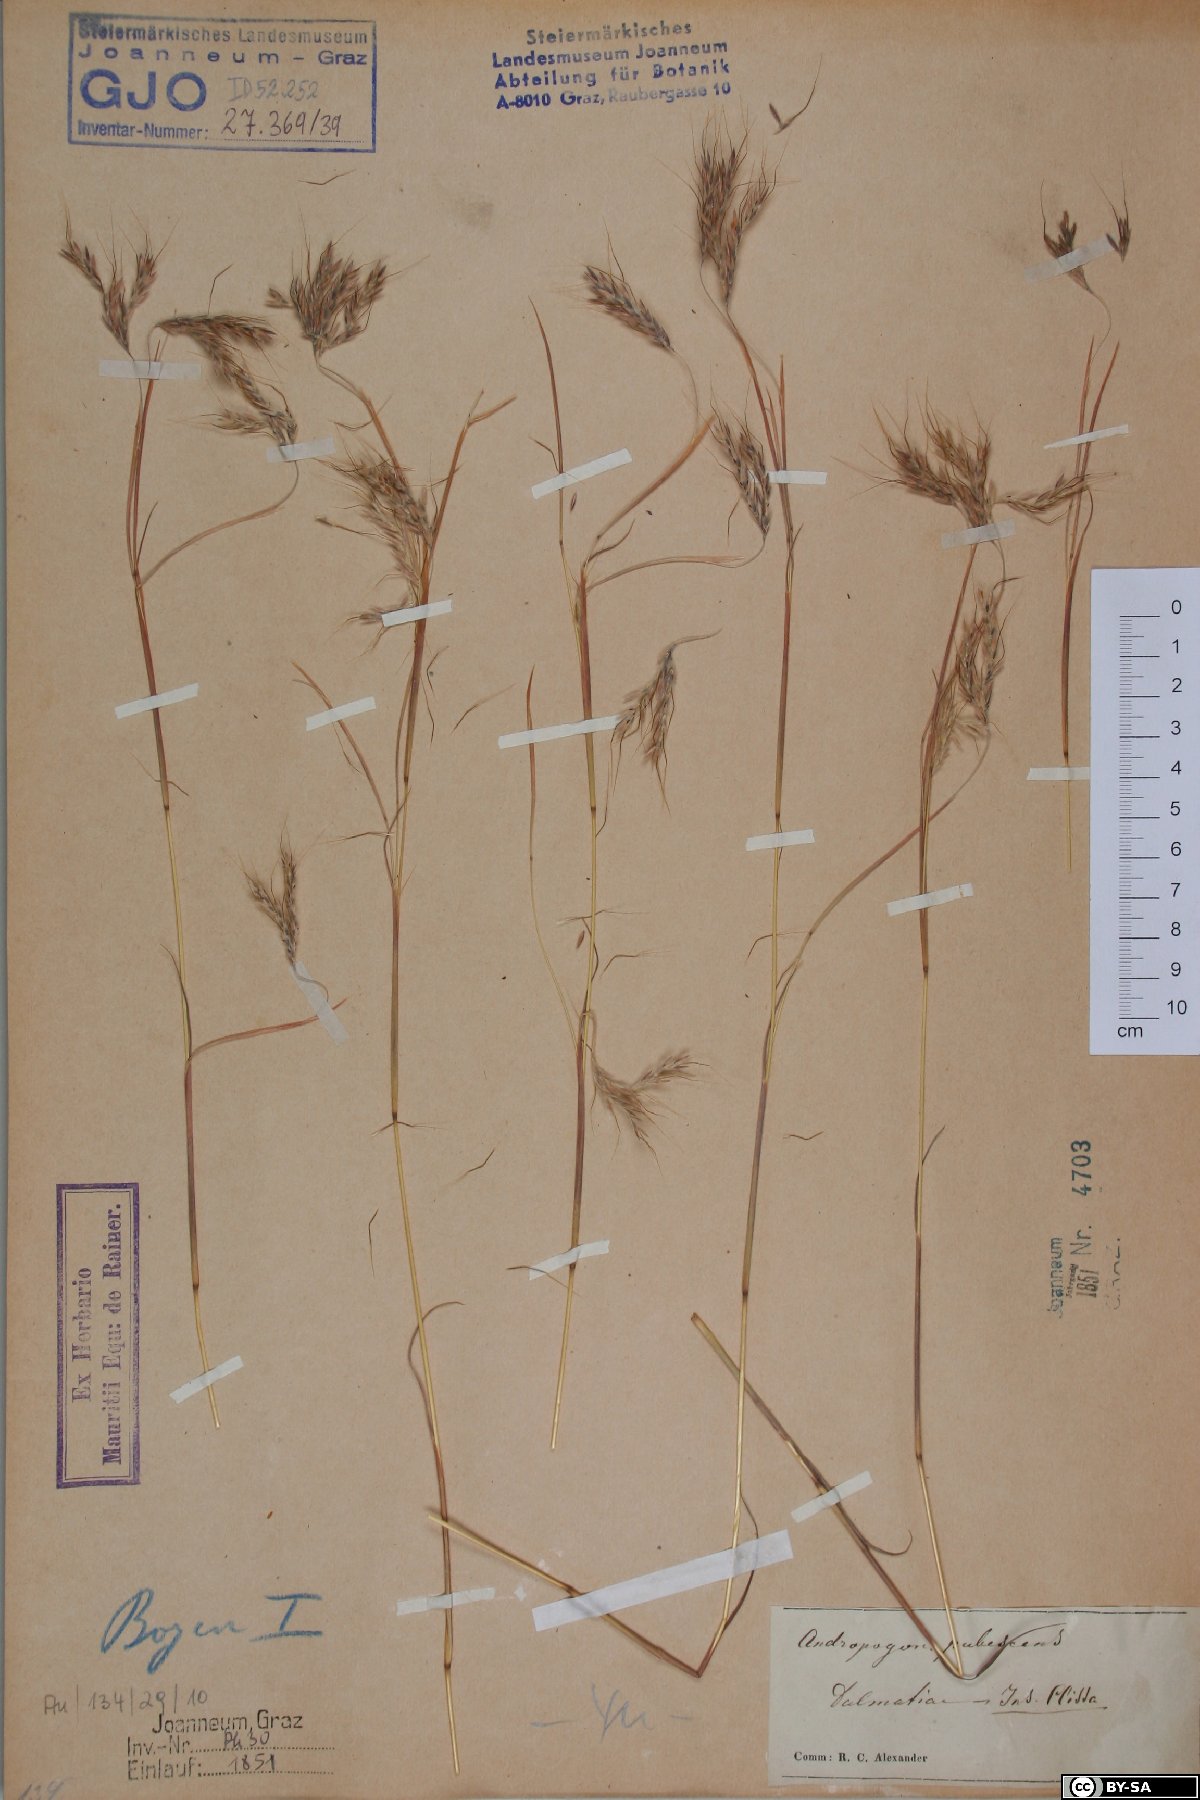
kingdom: Plantae
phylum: Tracheophyta
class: Liliopsida
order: Poales
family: Poaceae
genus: Hyparrhenia
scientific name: Hyparrhenia hirta
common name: Thatching grass
